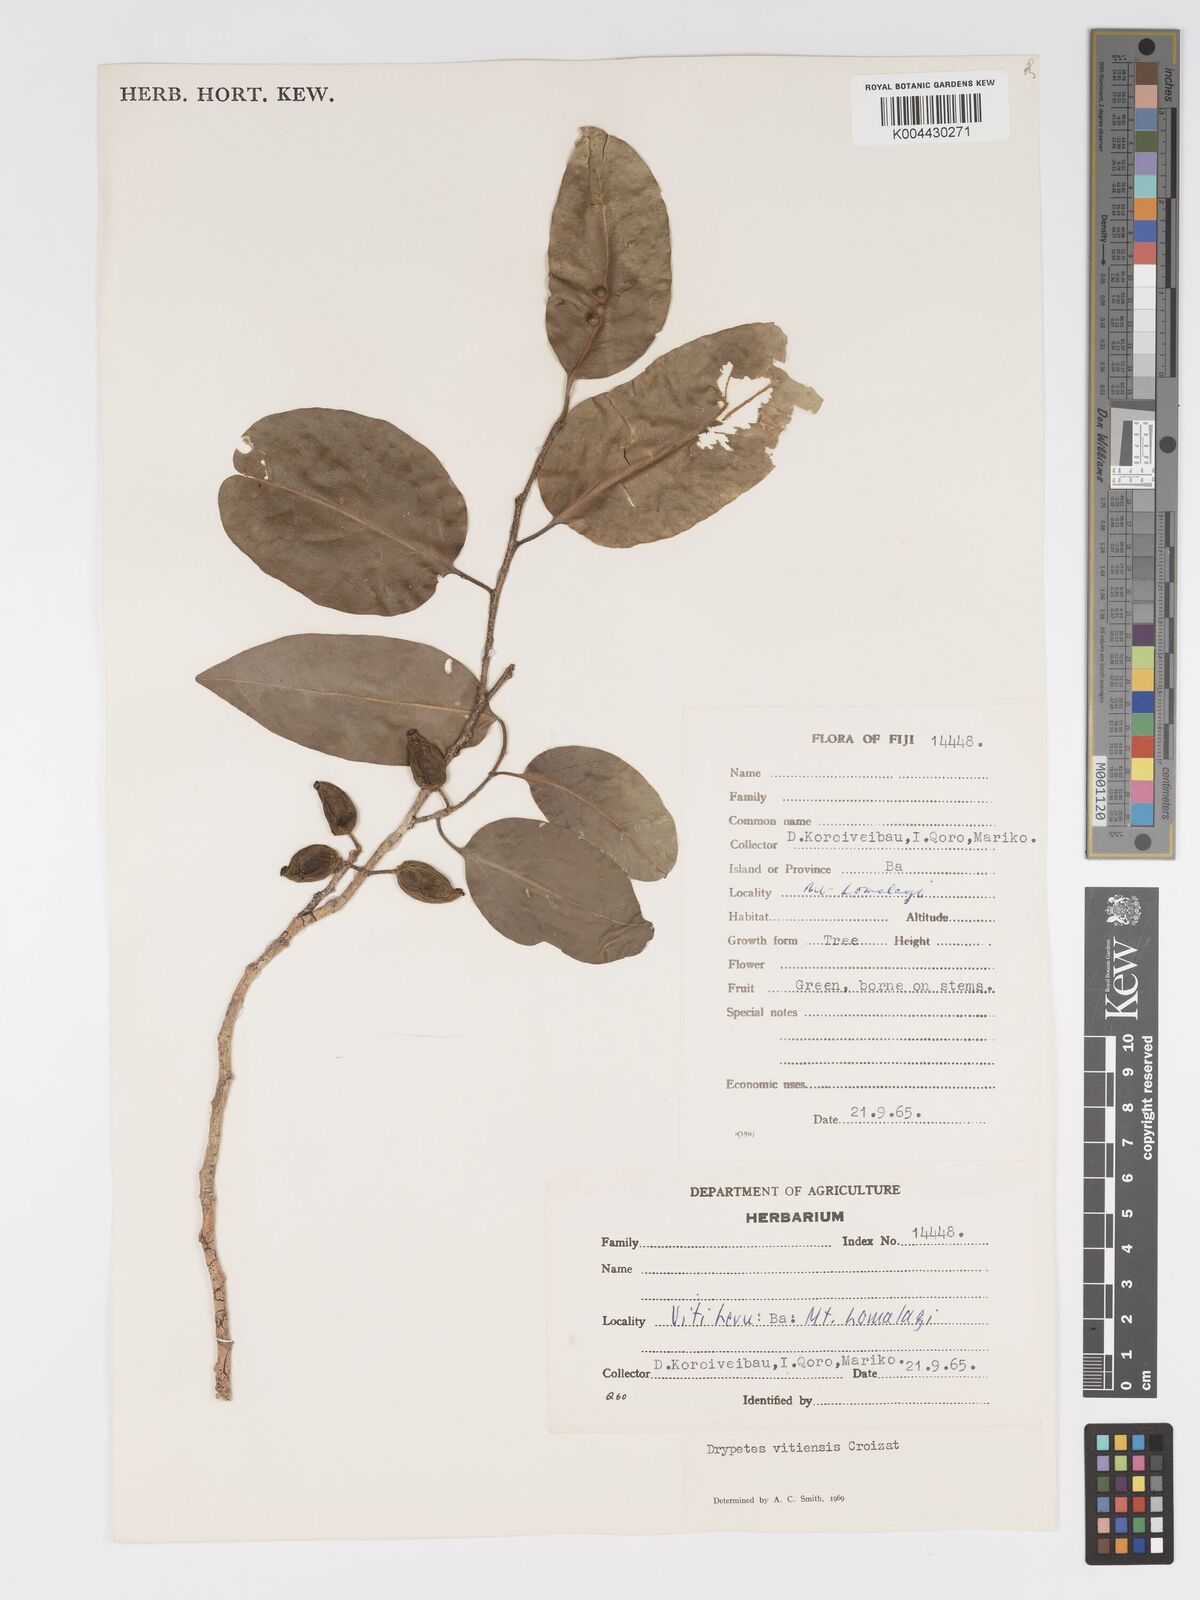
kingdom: Plantae
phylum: Tracheophyta
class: Magnoliopsida
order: Malpighiales
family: Putranjivaceae
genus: Drypetes
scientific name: Drypetes vitiensis
